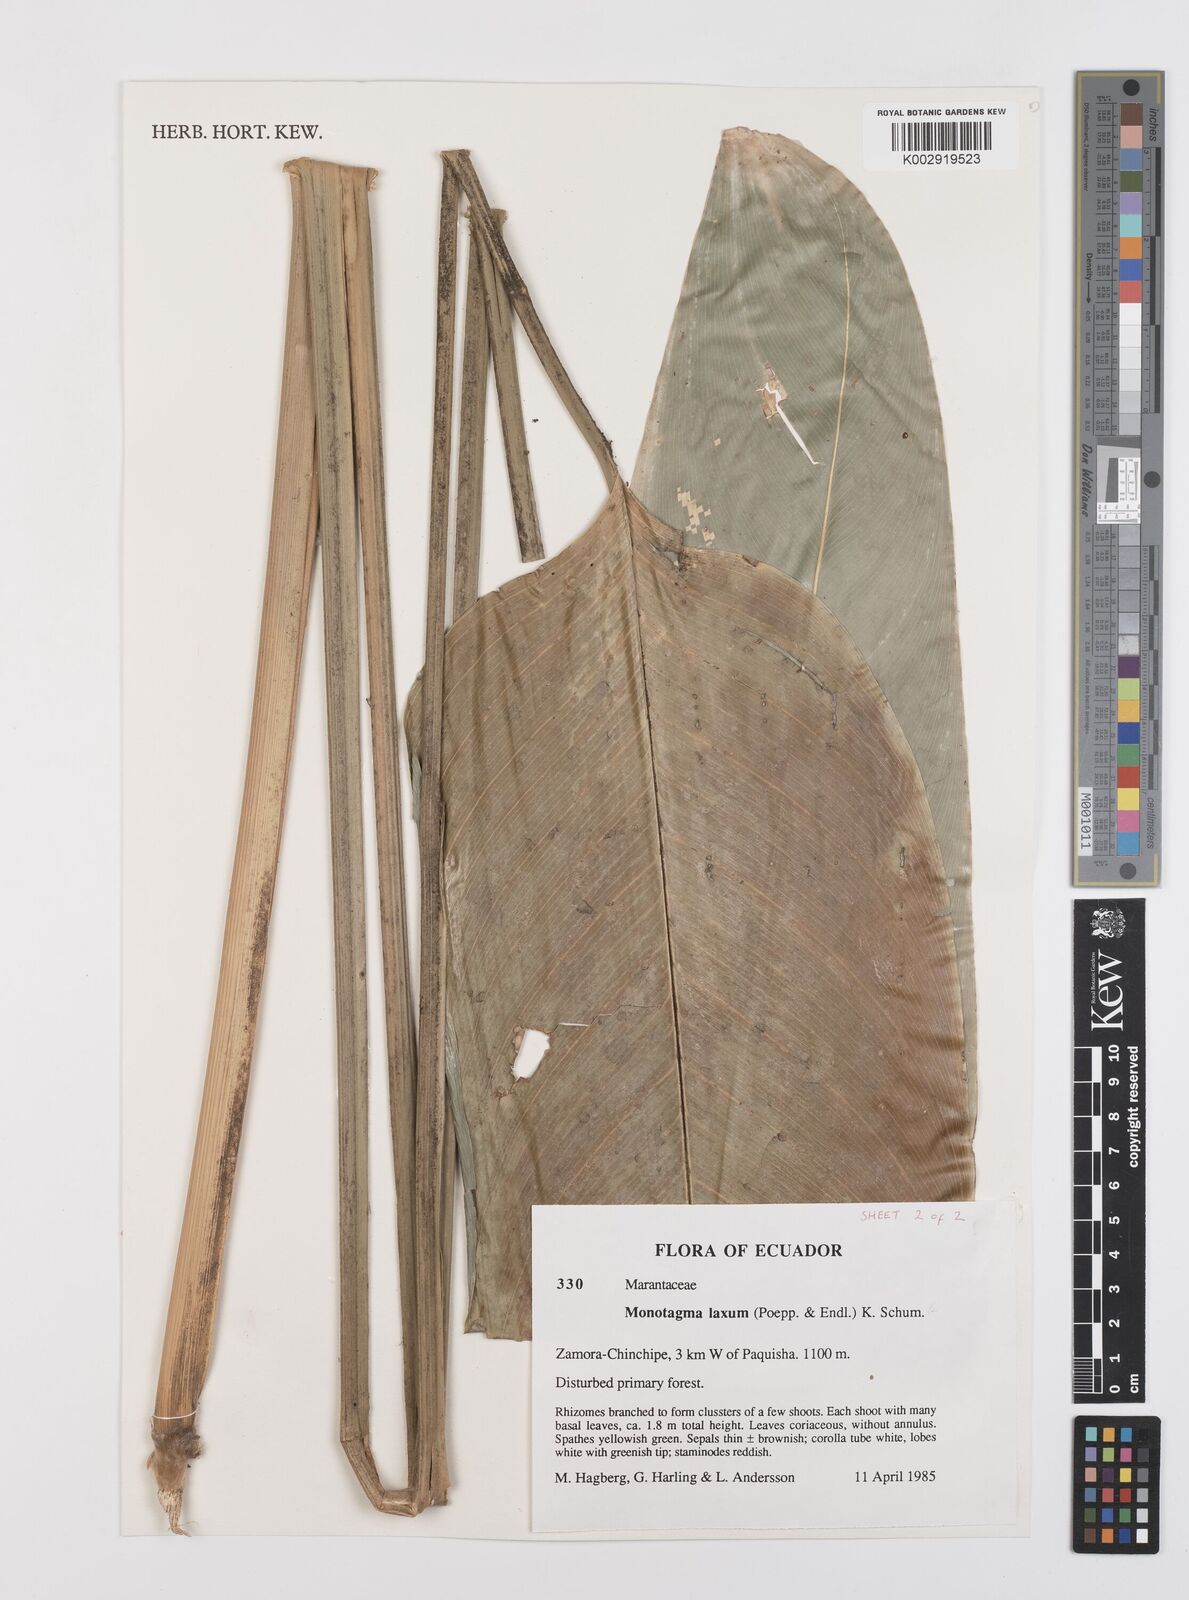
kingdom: Plantae
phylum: Tracheophyta
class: Liliopsida
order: Zingiberales
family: Marantaceae
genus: Monotagma
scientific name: Monotagma laxum
